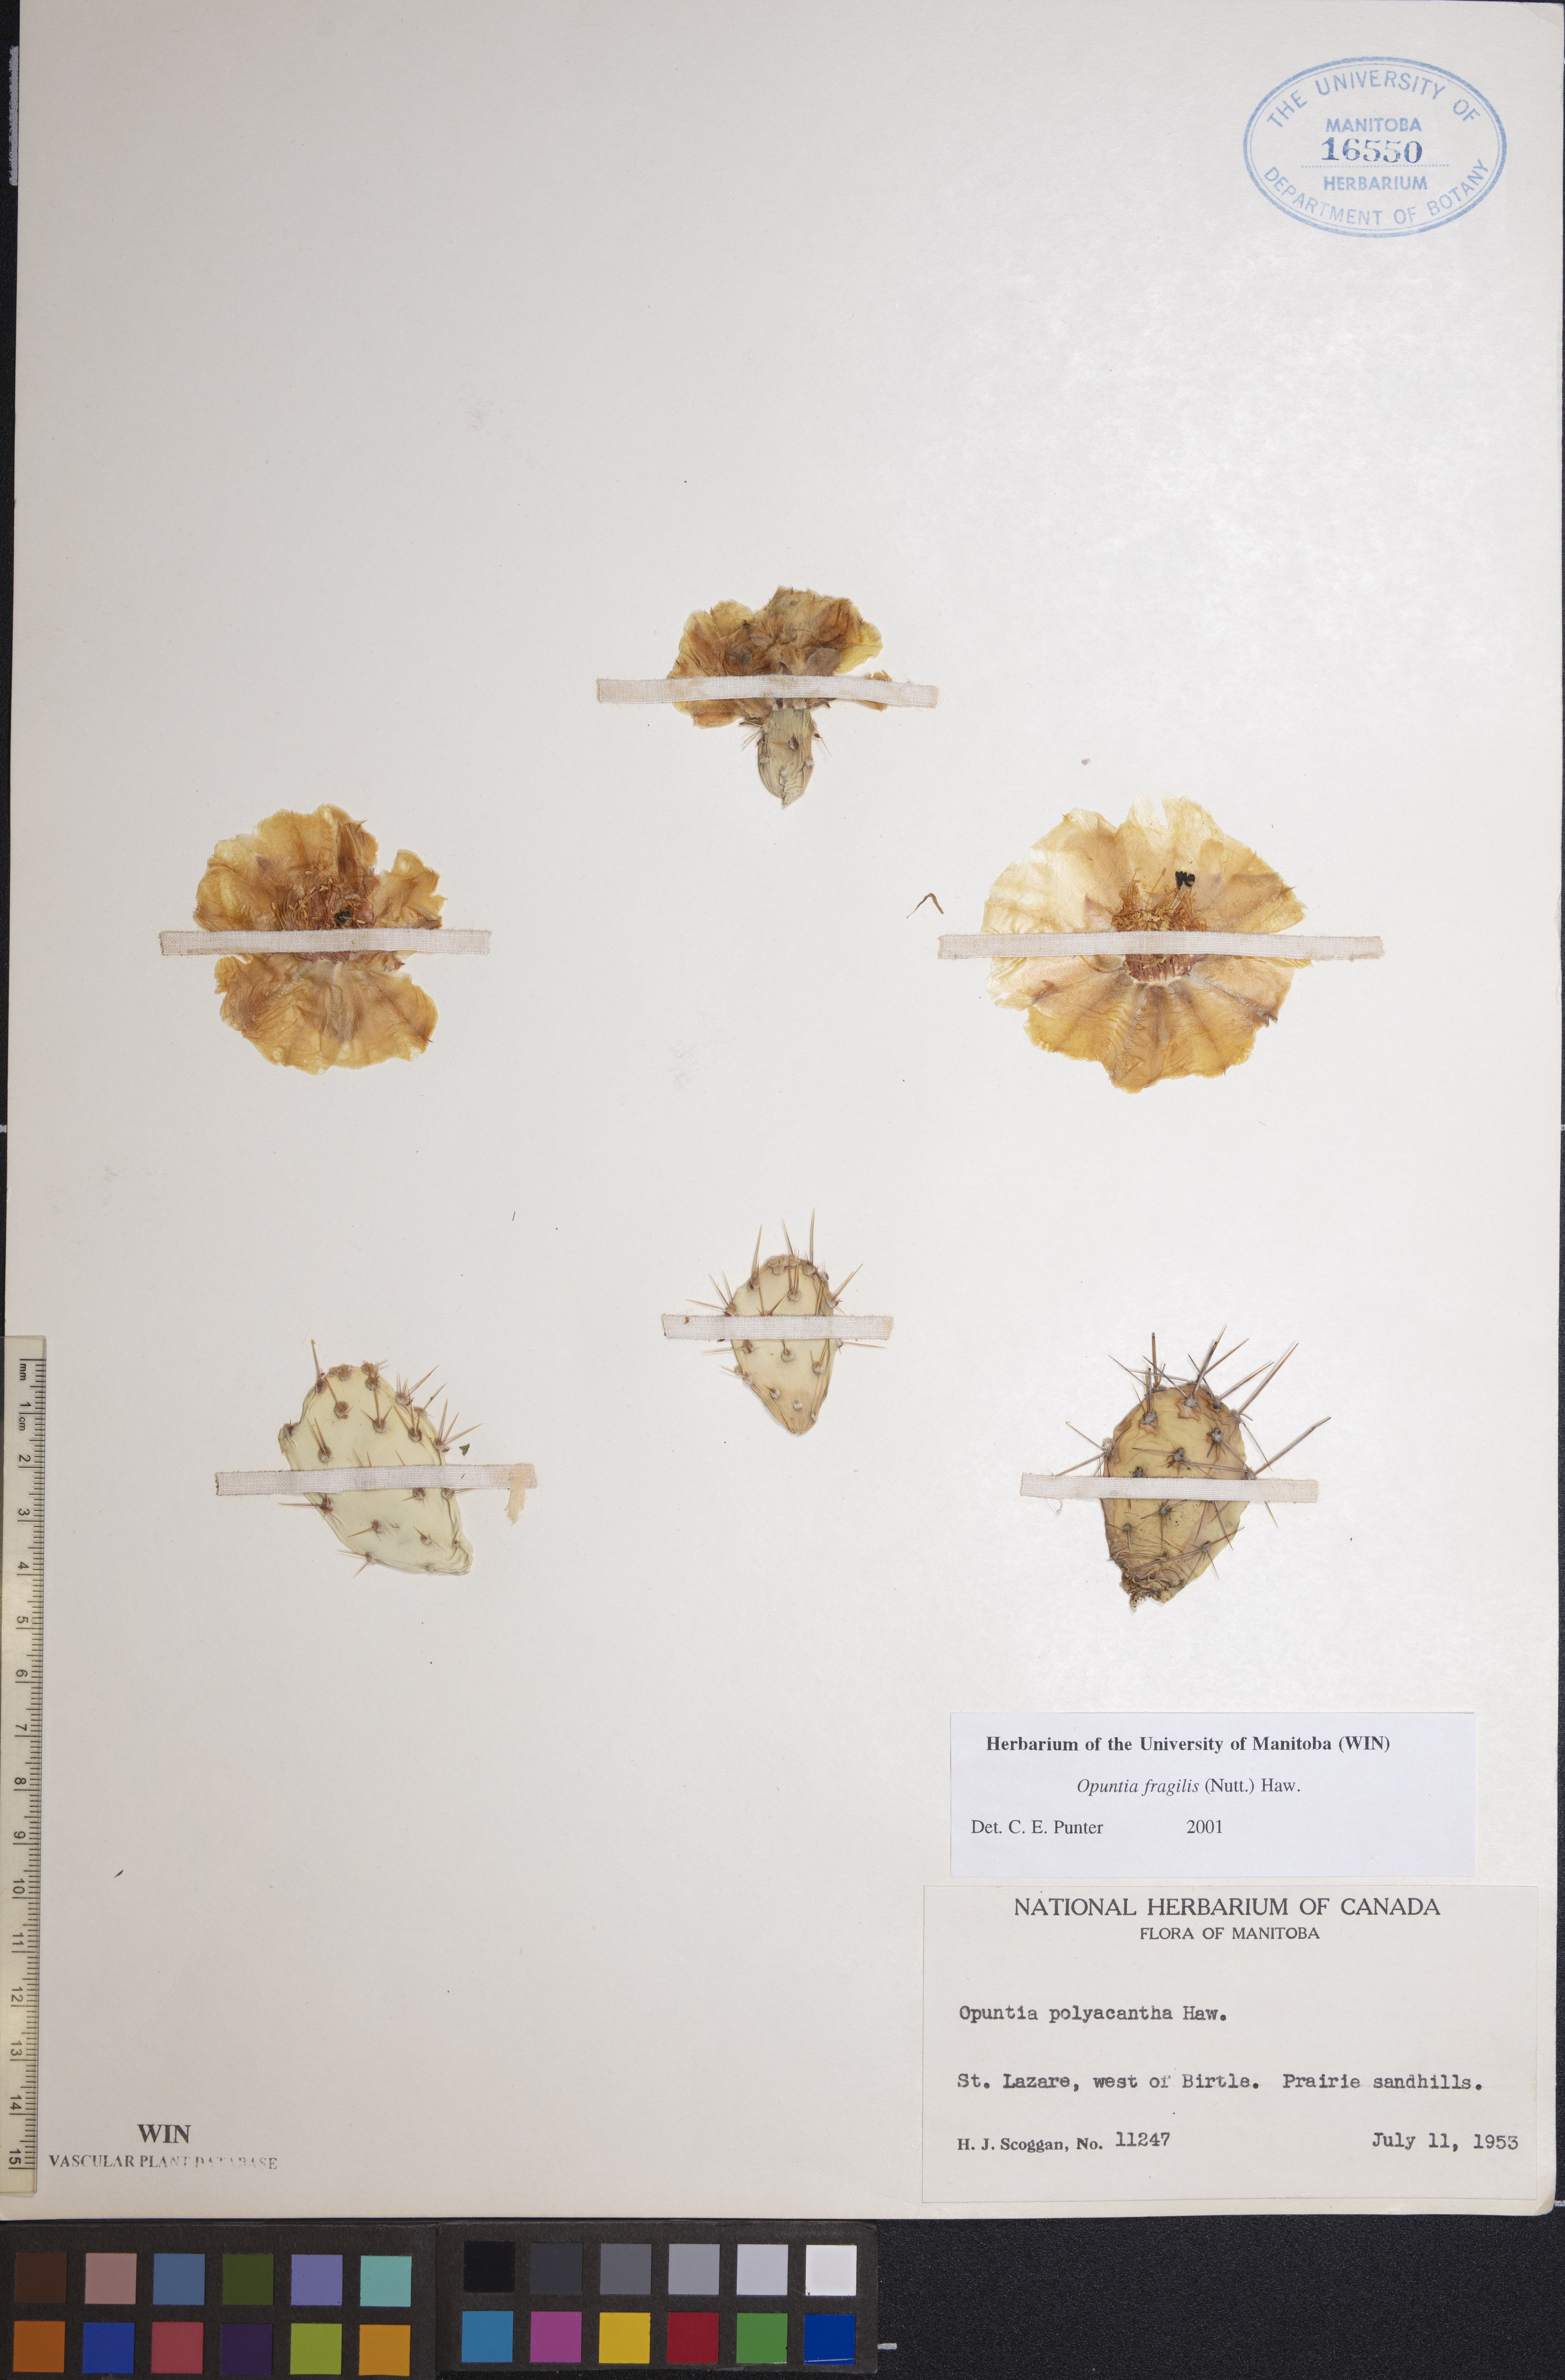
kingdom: Plantae
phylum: Tracheophyta
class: Magnoliopsida
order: Caryophyllales
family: Cactaceae
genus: Opuntia
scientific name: Opuntia fragilis
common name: Brittle cactus
